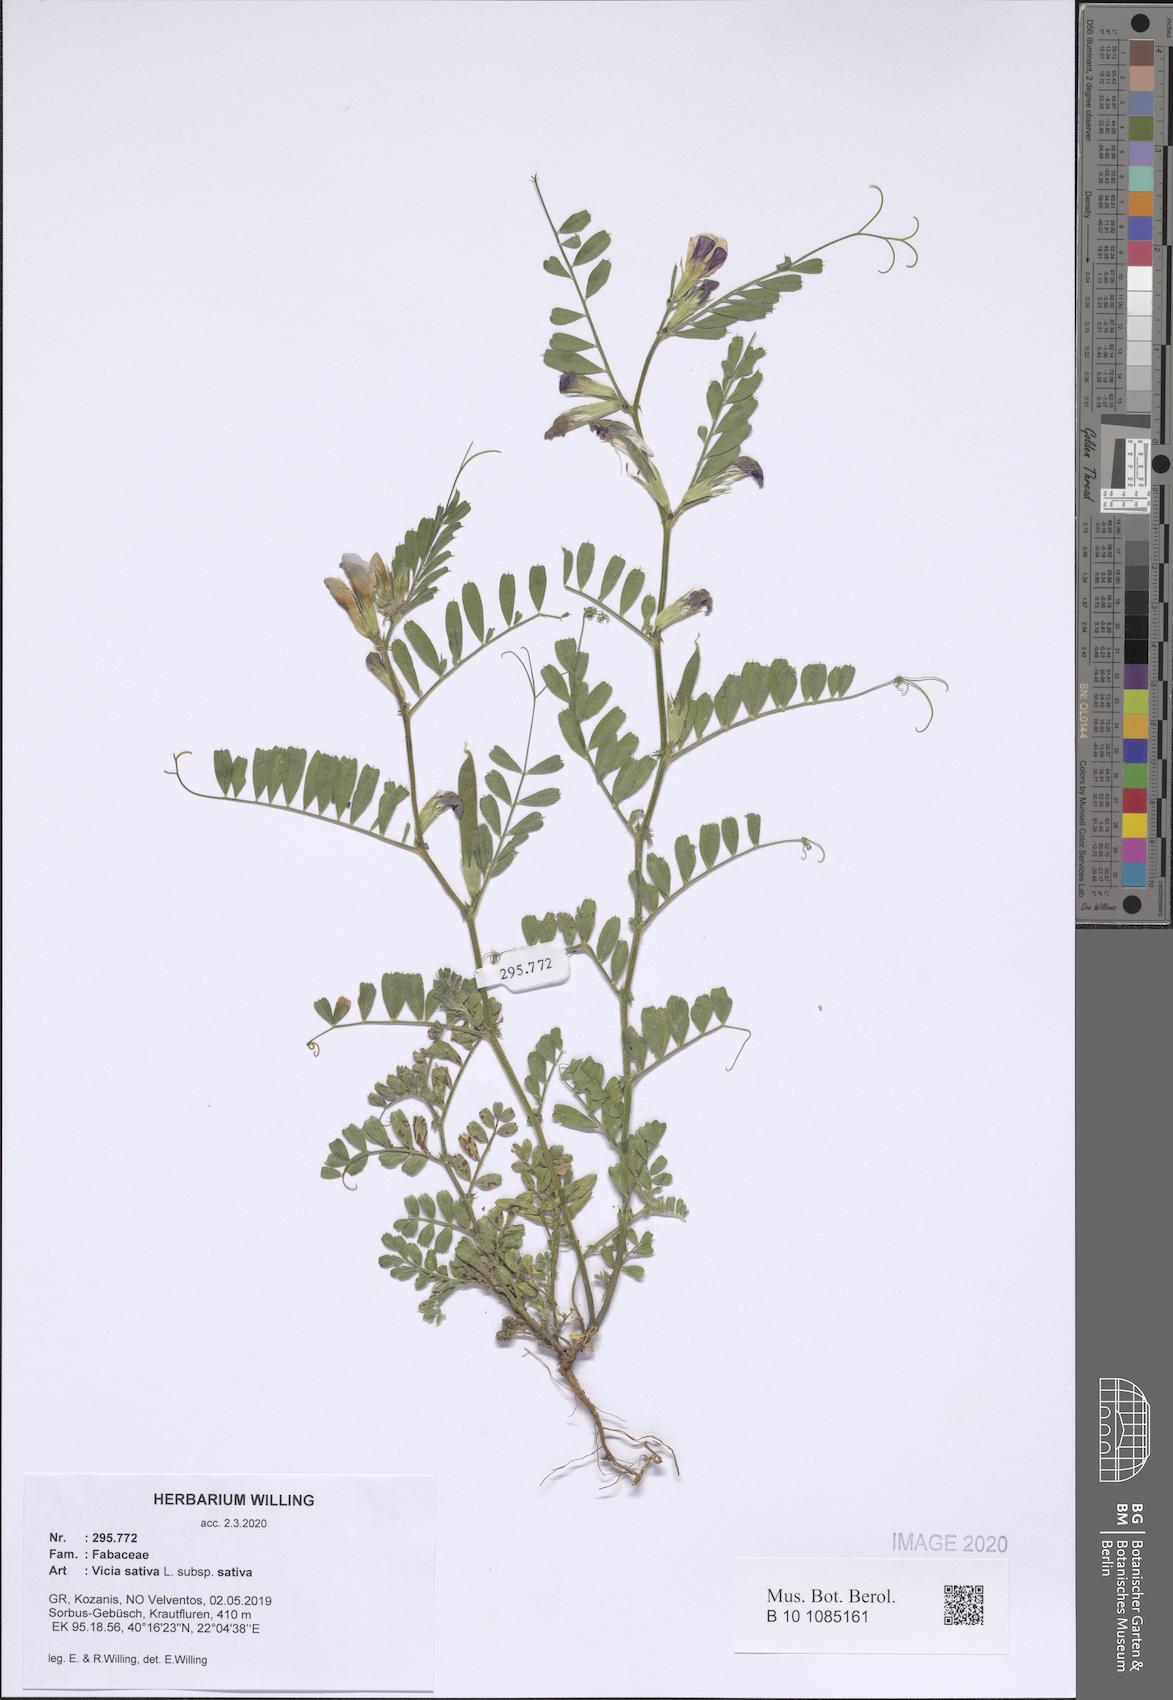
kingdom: Plantae
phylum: Tracheophyta
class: Magnoliopsida
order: Fabales
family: Fabaceae
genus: Vicia
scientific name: Vicia sativa
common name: Garden vetch
